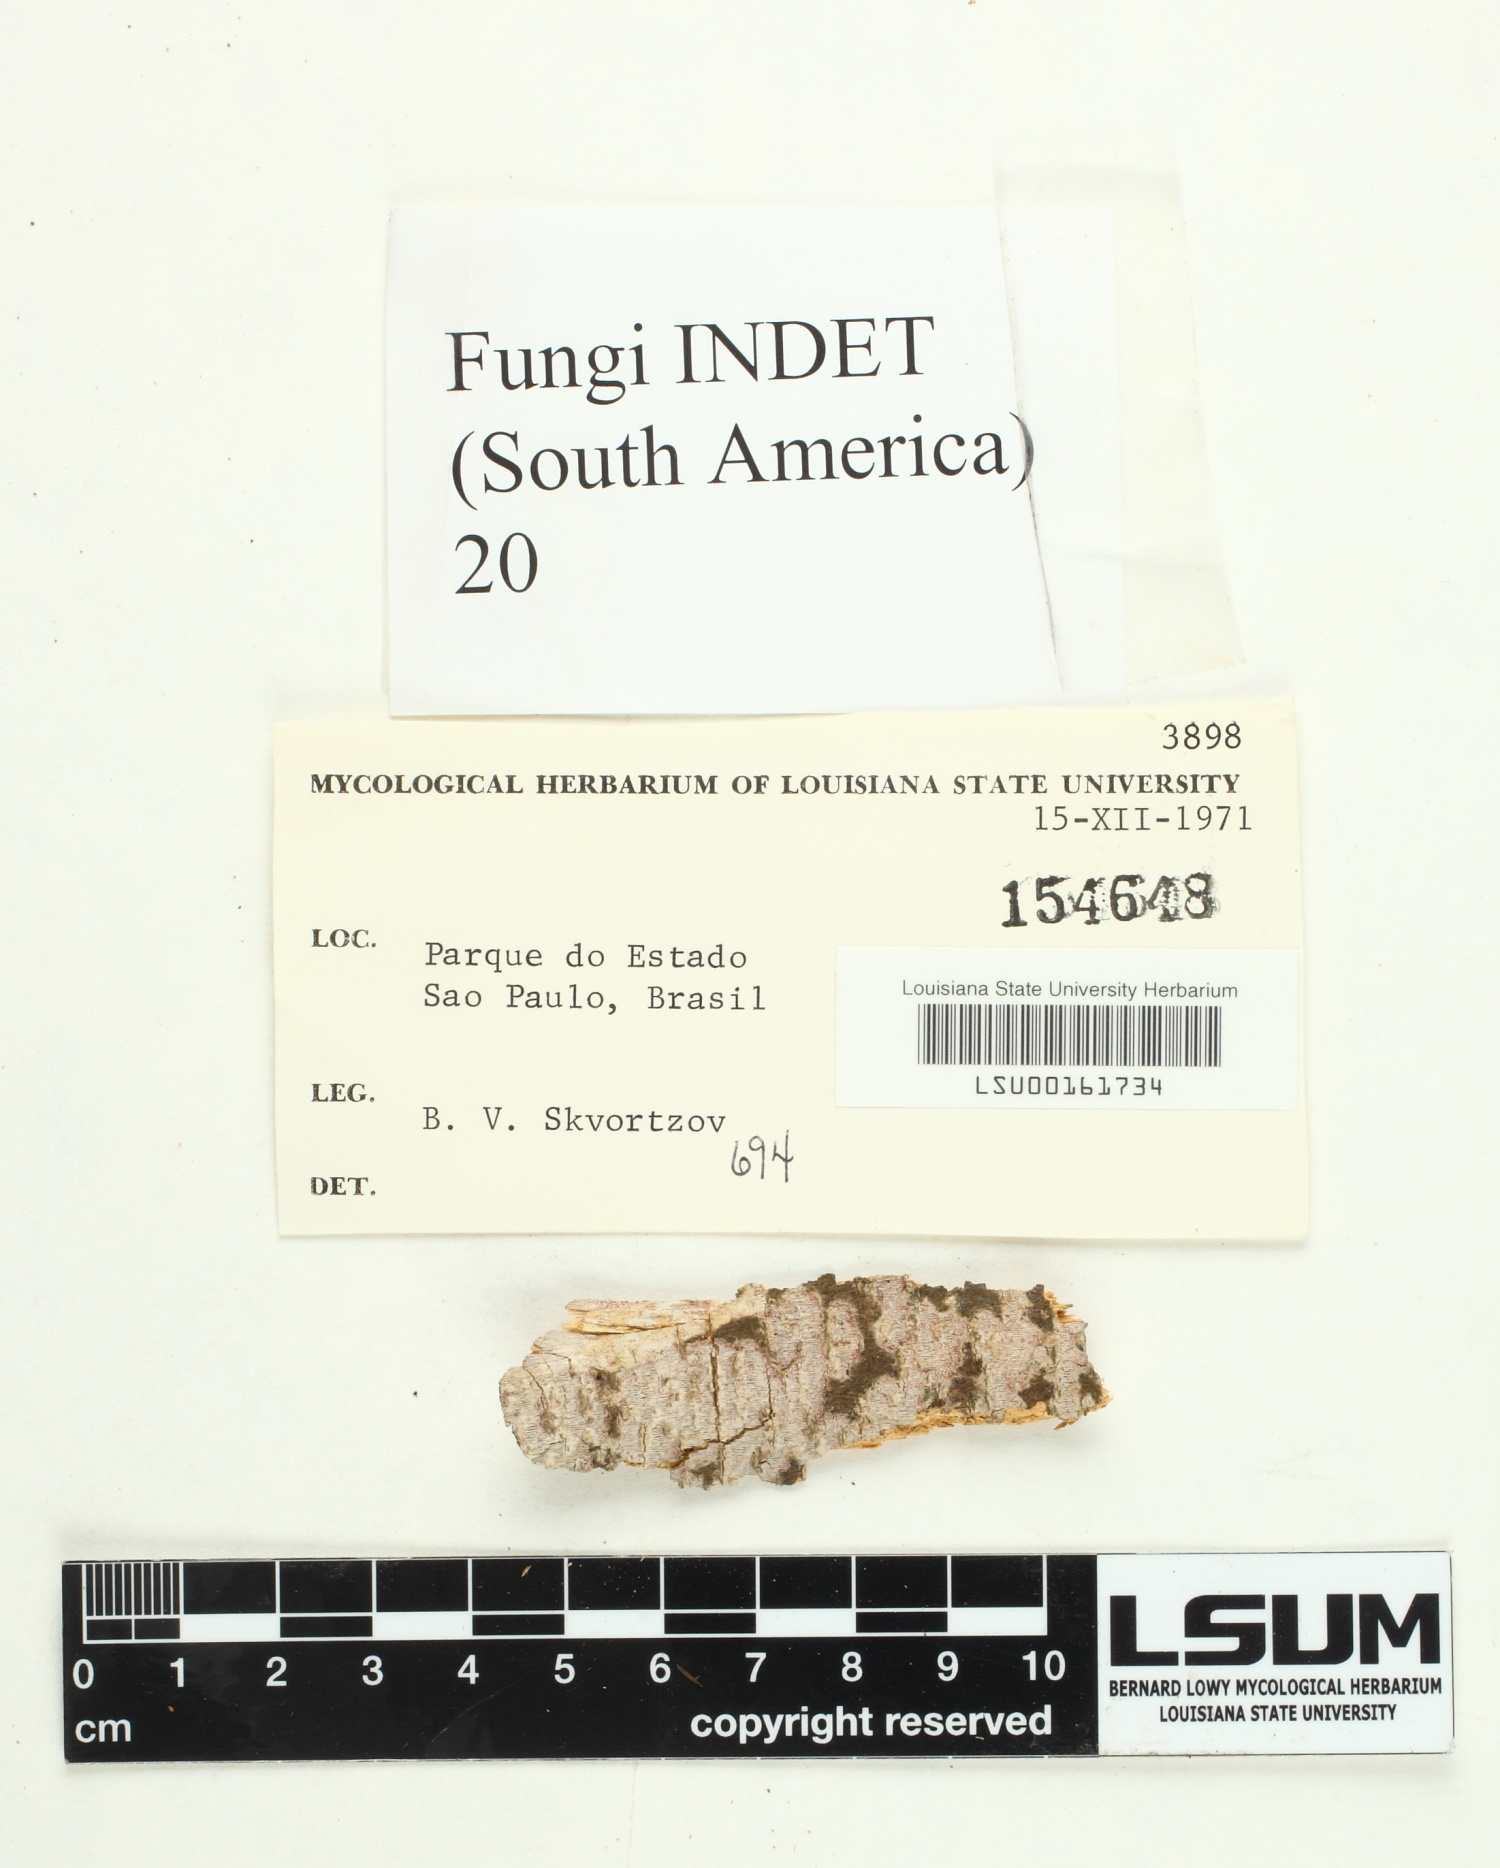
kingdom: Fungi
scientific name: Fungi
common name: Fungi
